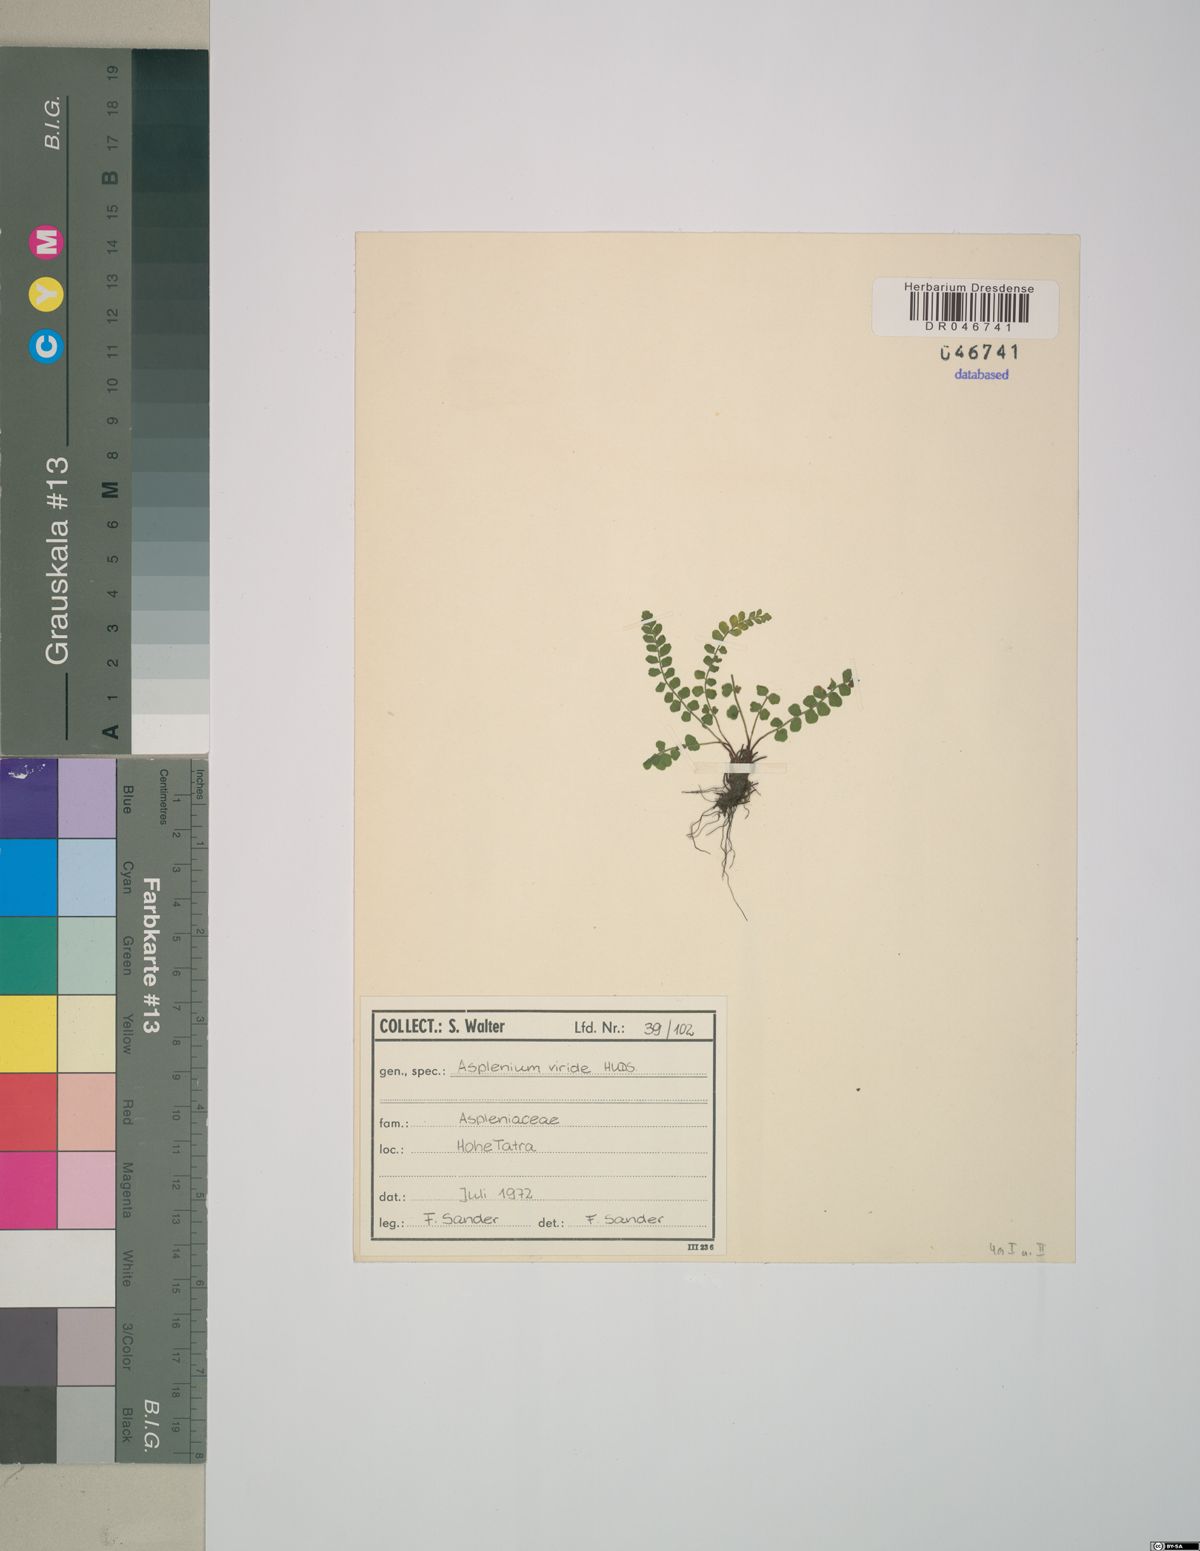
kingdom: Plantae
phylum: Tracheophyta
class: Polypodiopsida
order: Polypodiales
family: Aspleniaceae
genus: Asplenium
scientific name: Asplenium viride
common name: Green spleenwort
